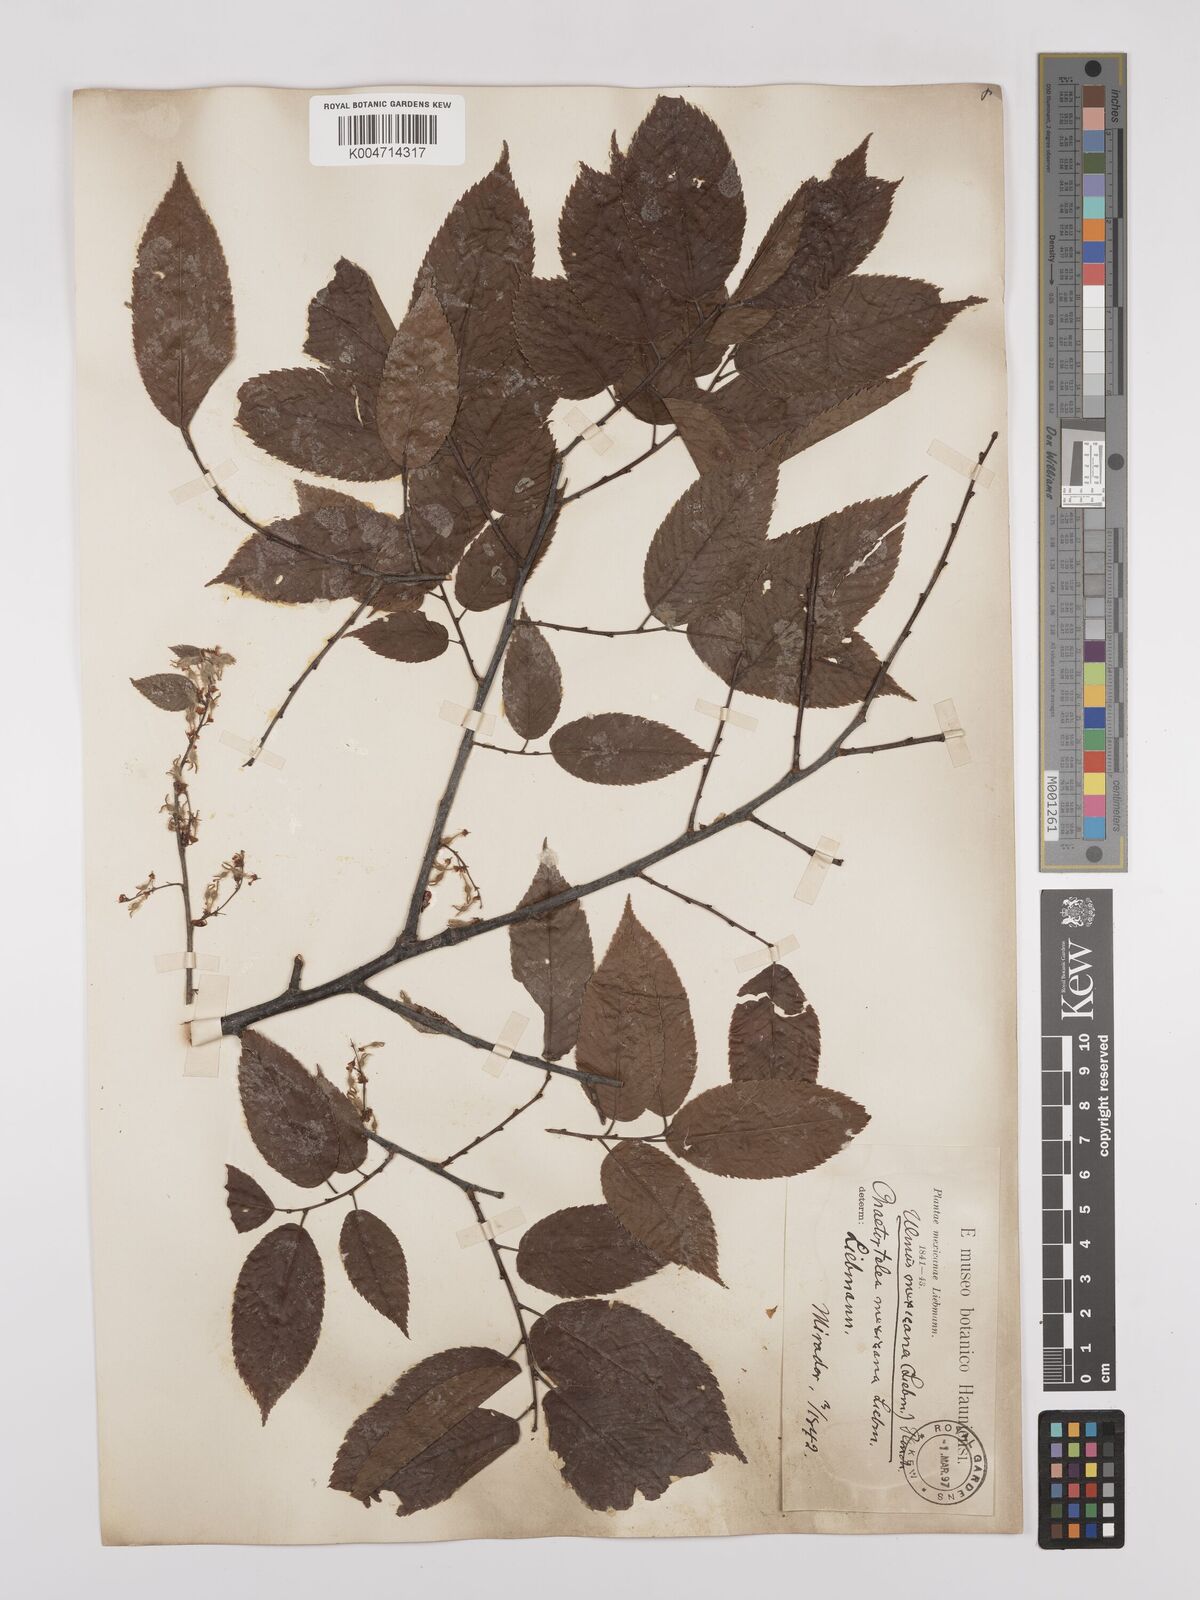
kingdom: Plantae
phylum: Tracheophyta
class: Magnoliopsida
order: Rosales
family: Ulmaceae
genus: Ulmus
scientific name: Ulmus mexicana
